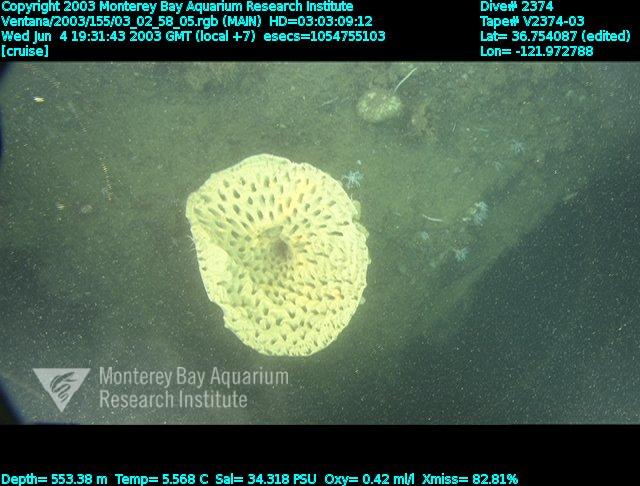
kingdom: Animalia
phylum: Porifera
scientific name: Porifera
